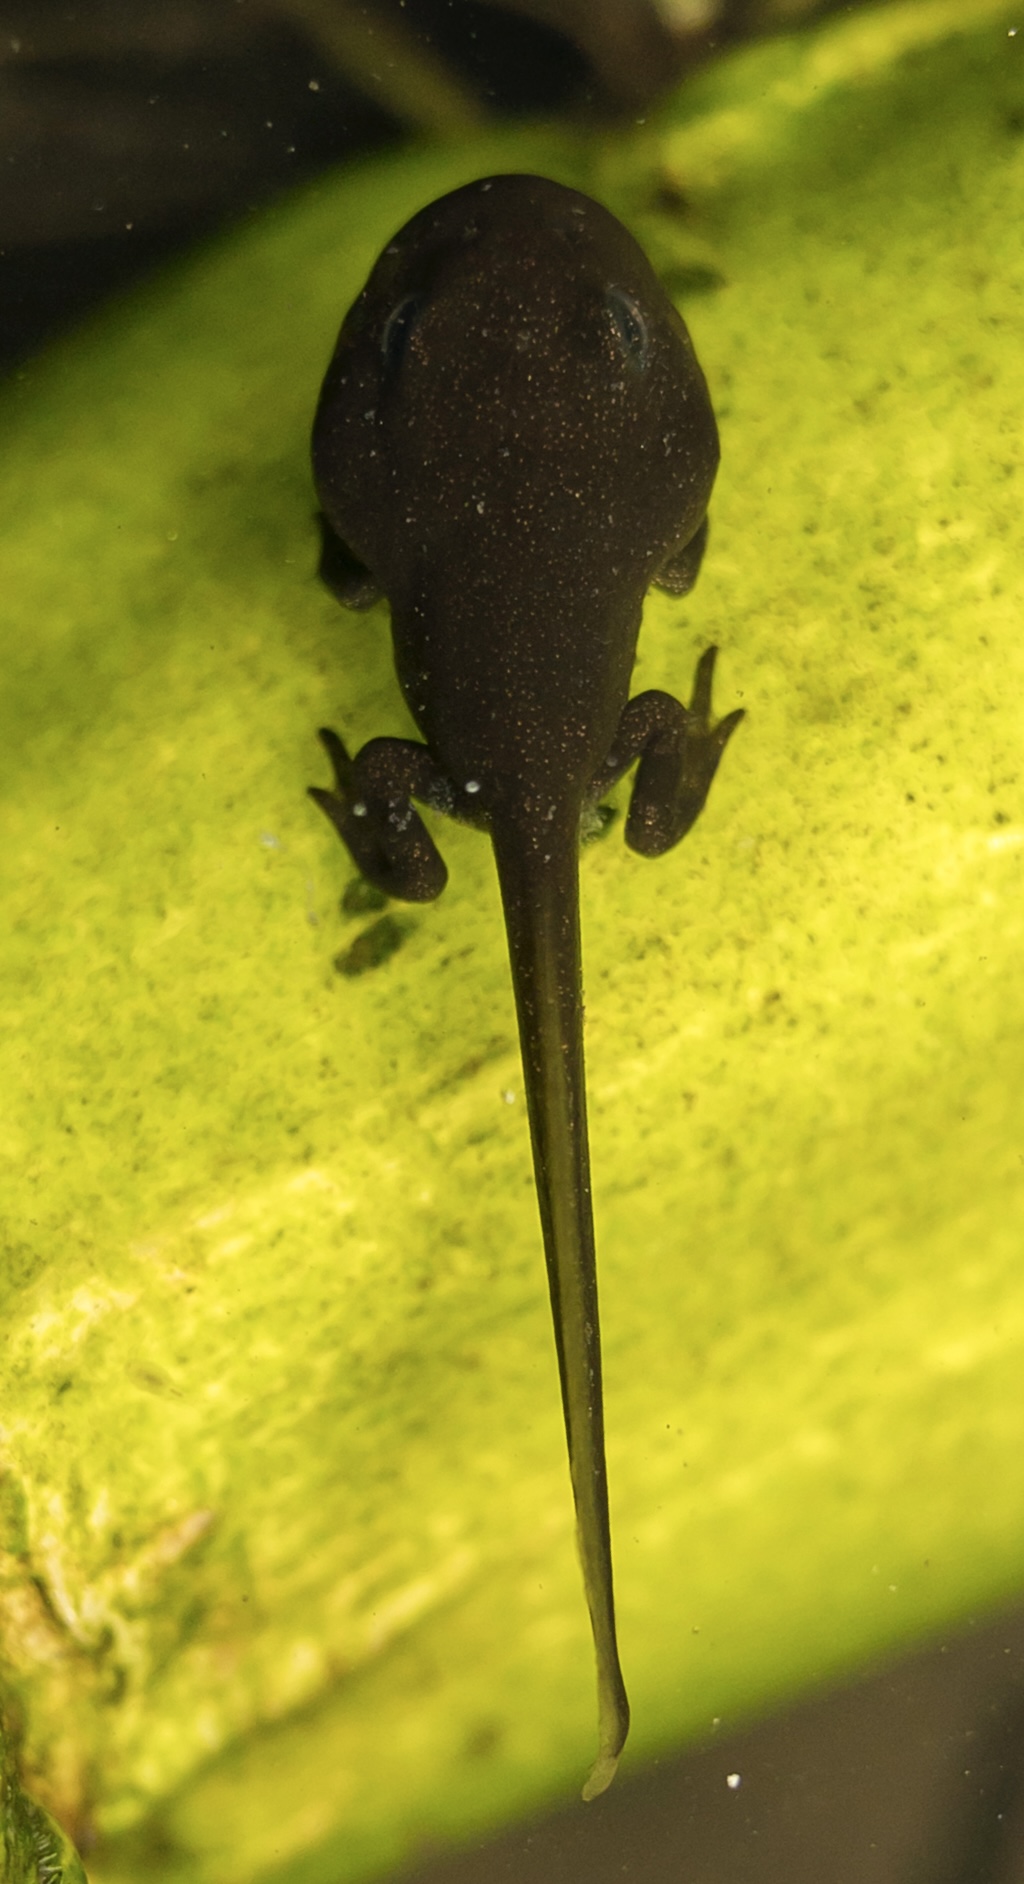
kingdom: Animalia
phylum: Chordata
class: Amphibia
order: Anura
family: Bufonidae
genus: Bufo
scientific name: Bufo bufo
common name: Skrubtudse
